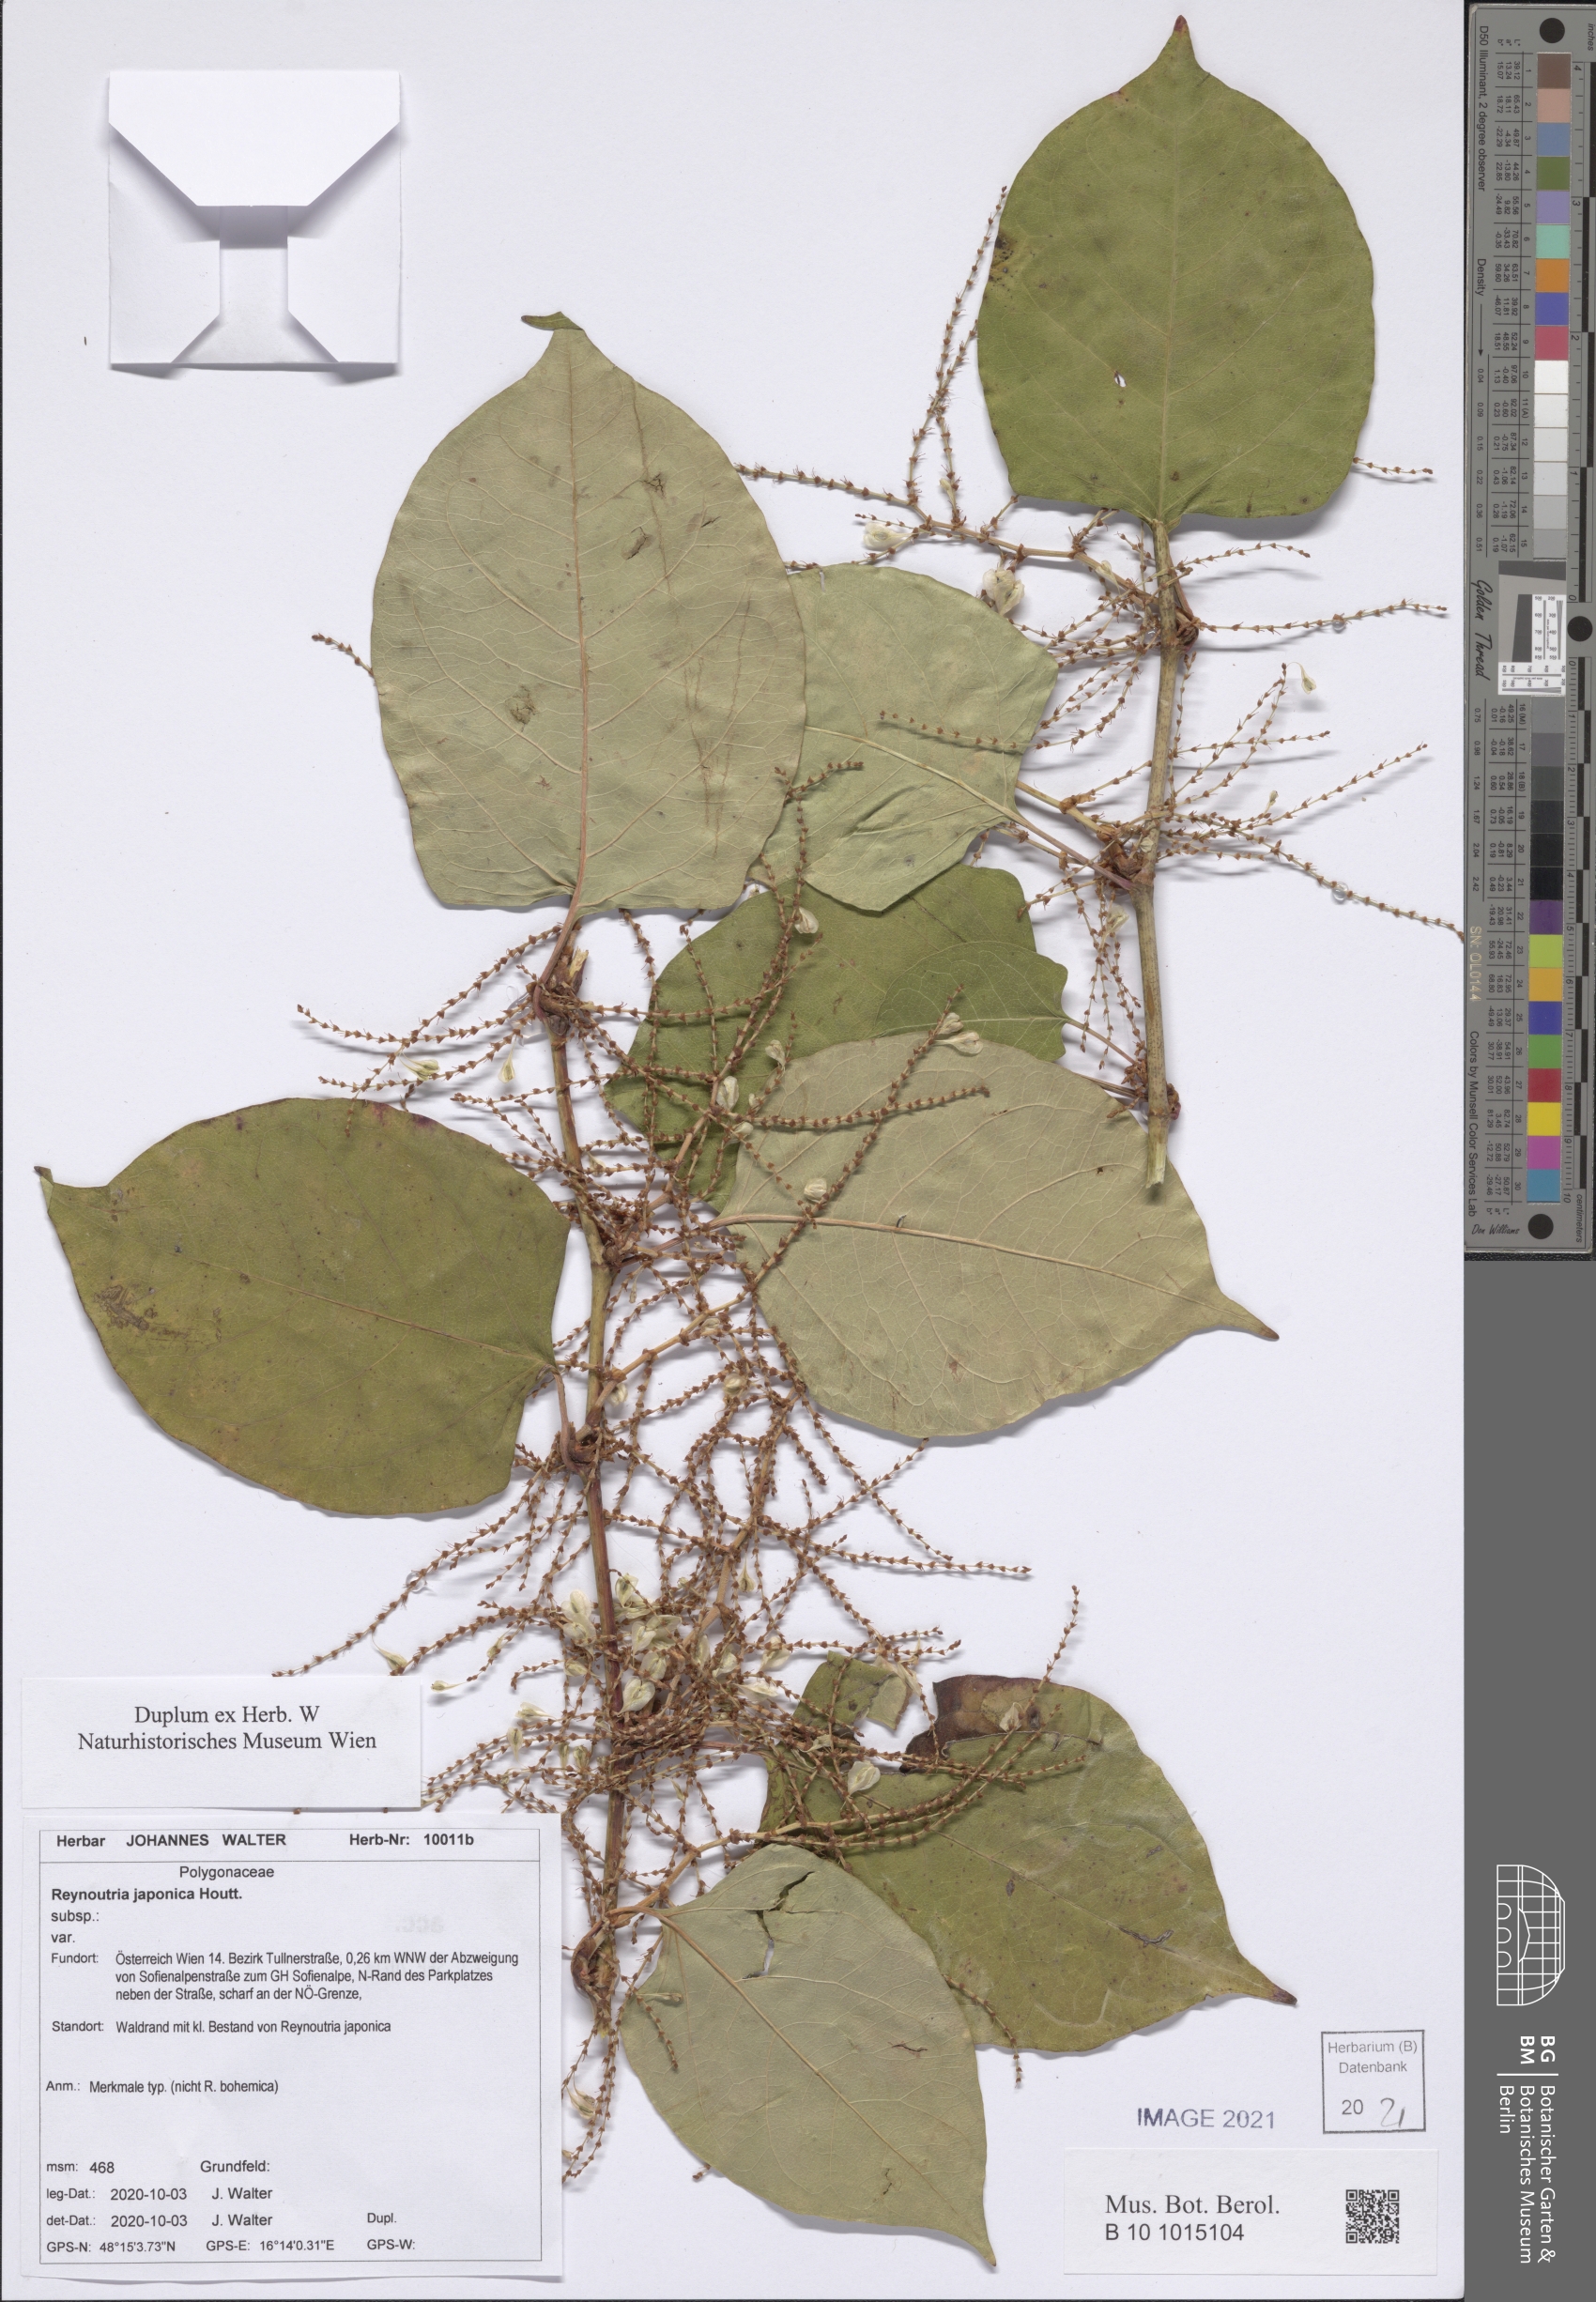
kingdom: Plantae
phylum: Tracheophyta
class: Magnoliopsida
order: Caryophyllales
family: Polygonaceae
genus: Reynoutria
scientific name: Reynoutria japonica
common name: Japanese knotweed
